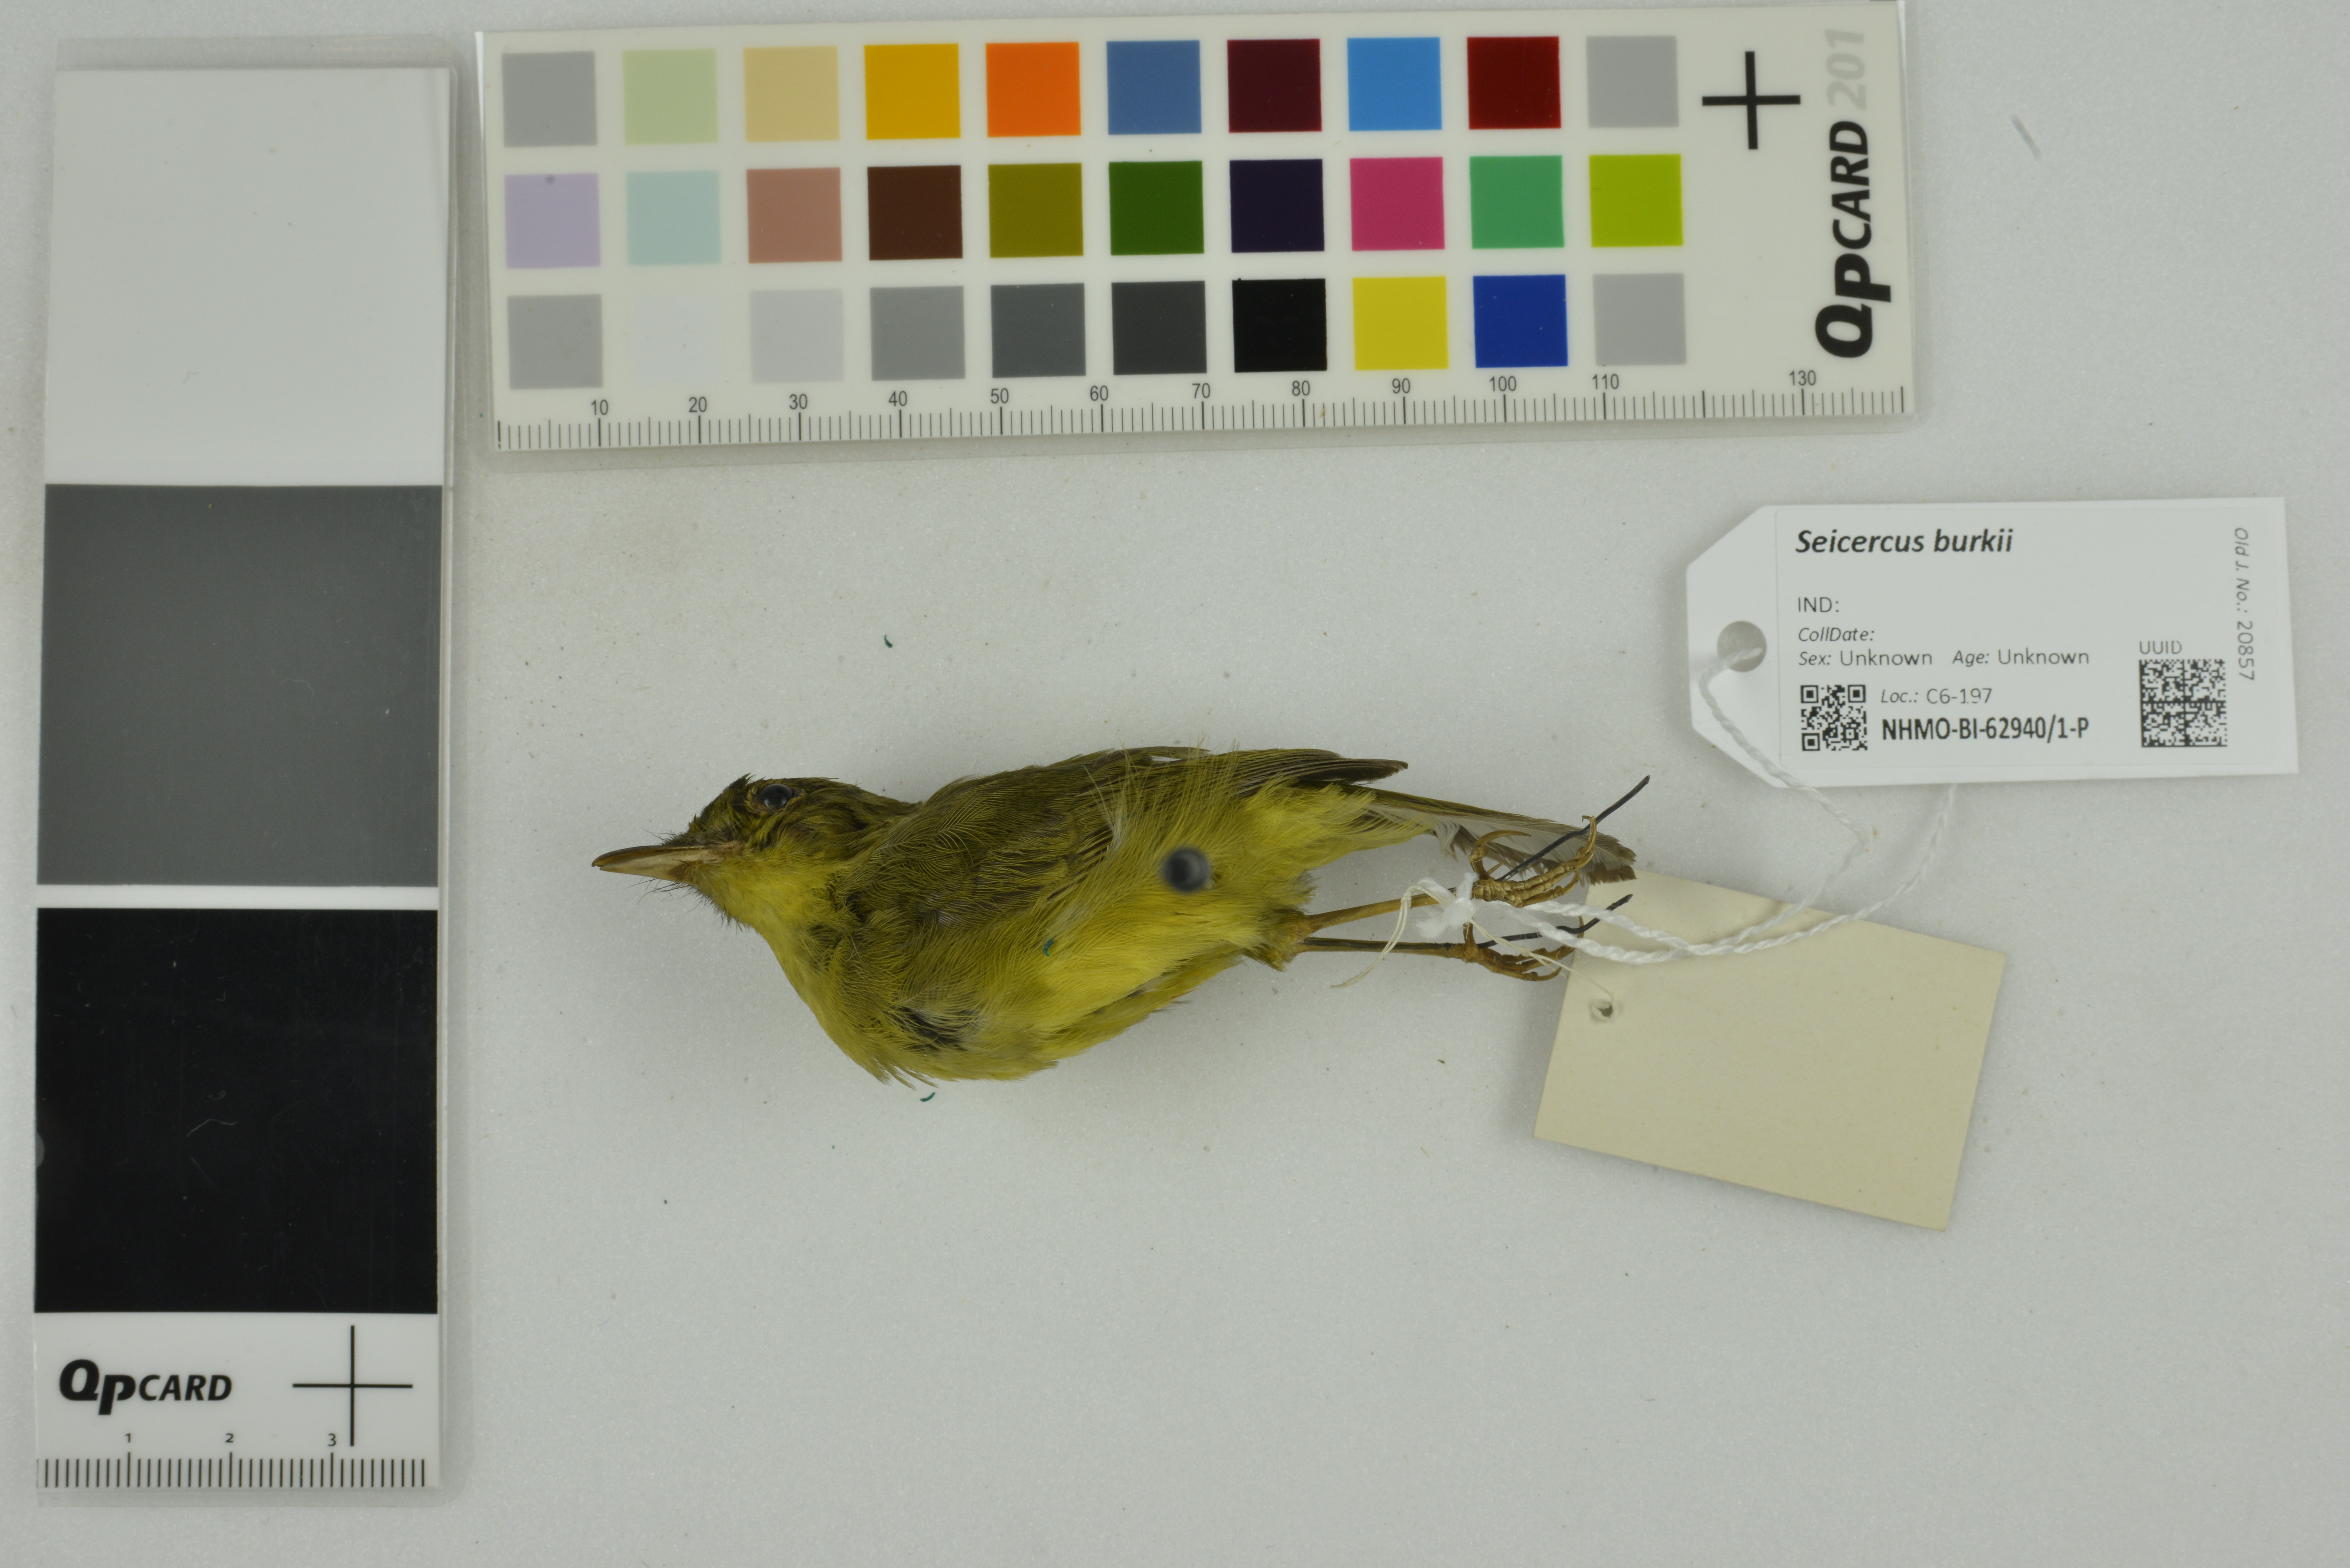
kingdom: Animalia
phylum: Chordata
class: Aves
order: Passeriformes
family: Phylloscopidae
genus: Seicercus
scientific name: Seicercus burkii
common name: Green-crowned warbler
